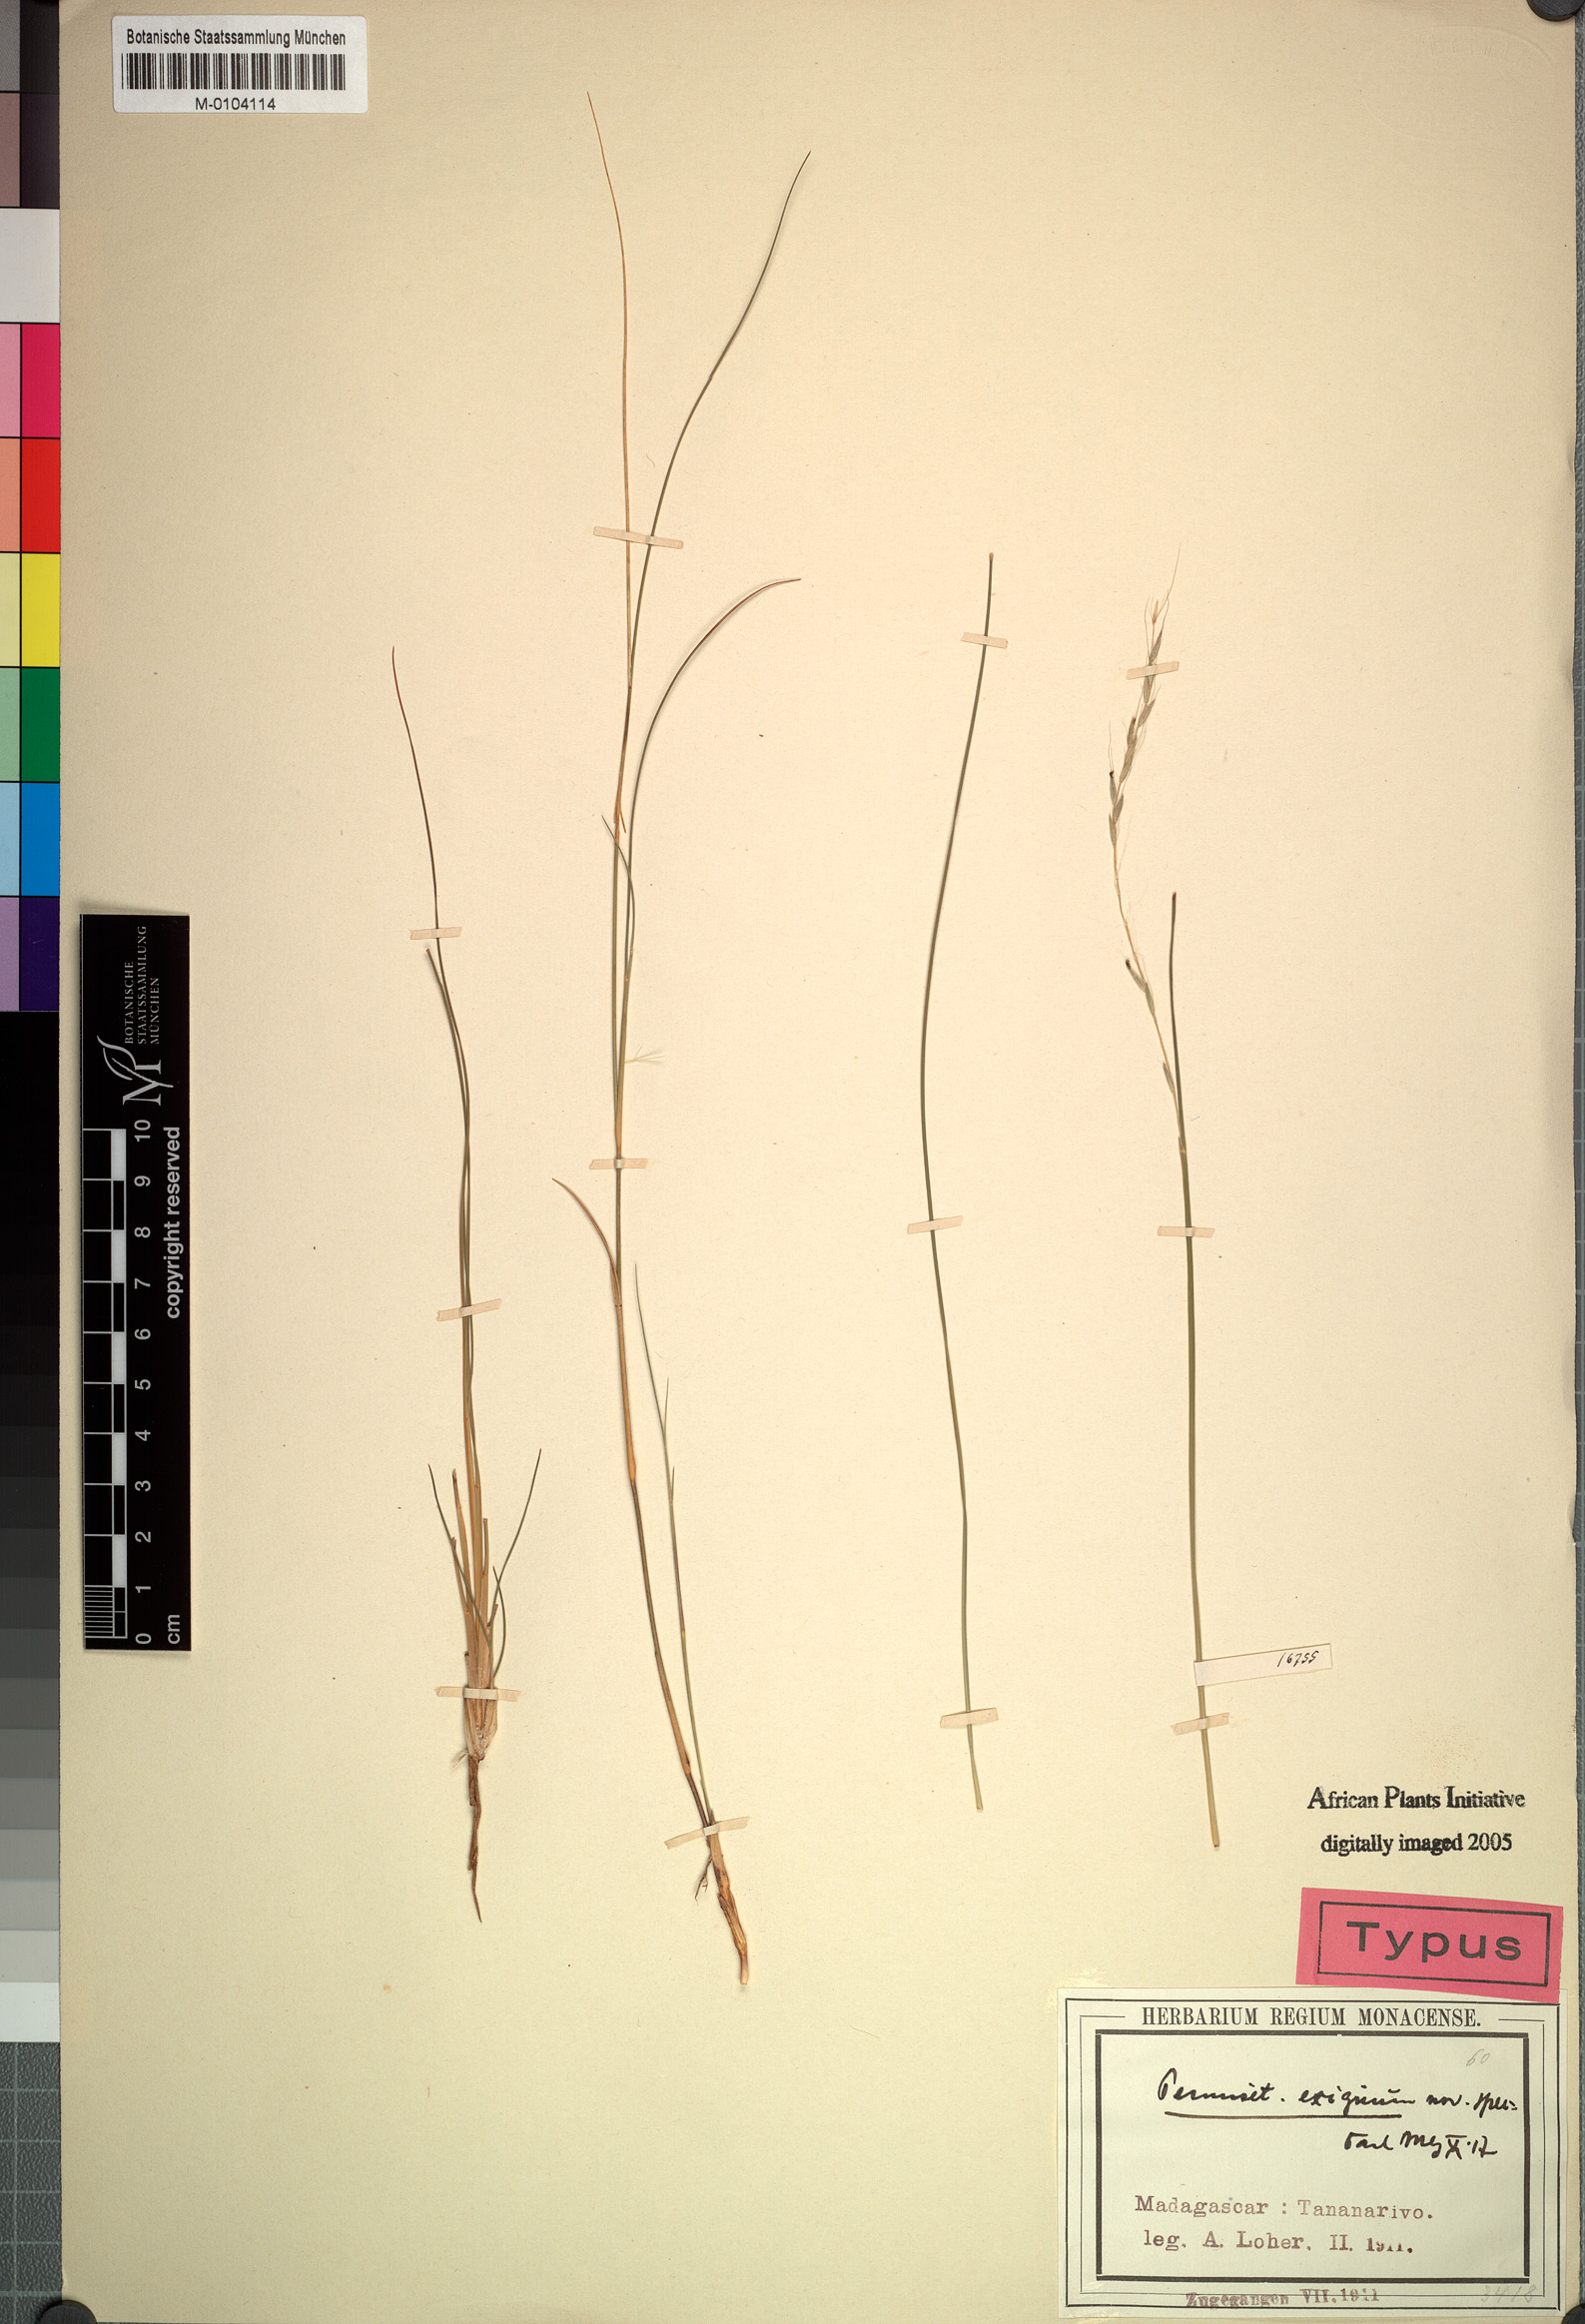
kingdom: Plantae
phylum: Tracheophyta
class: Liliopsida
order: Poales
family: Poaceae
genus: Cenchrus
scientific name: Cenchrus exiguus
